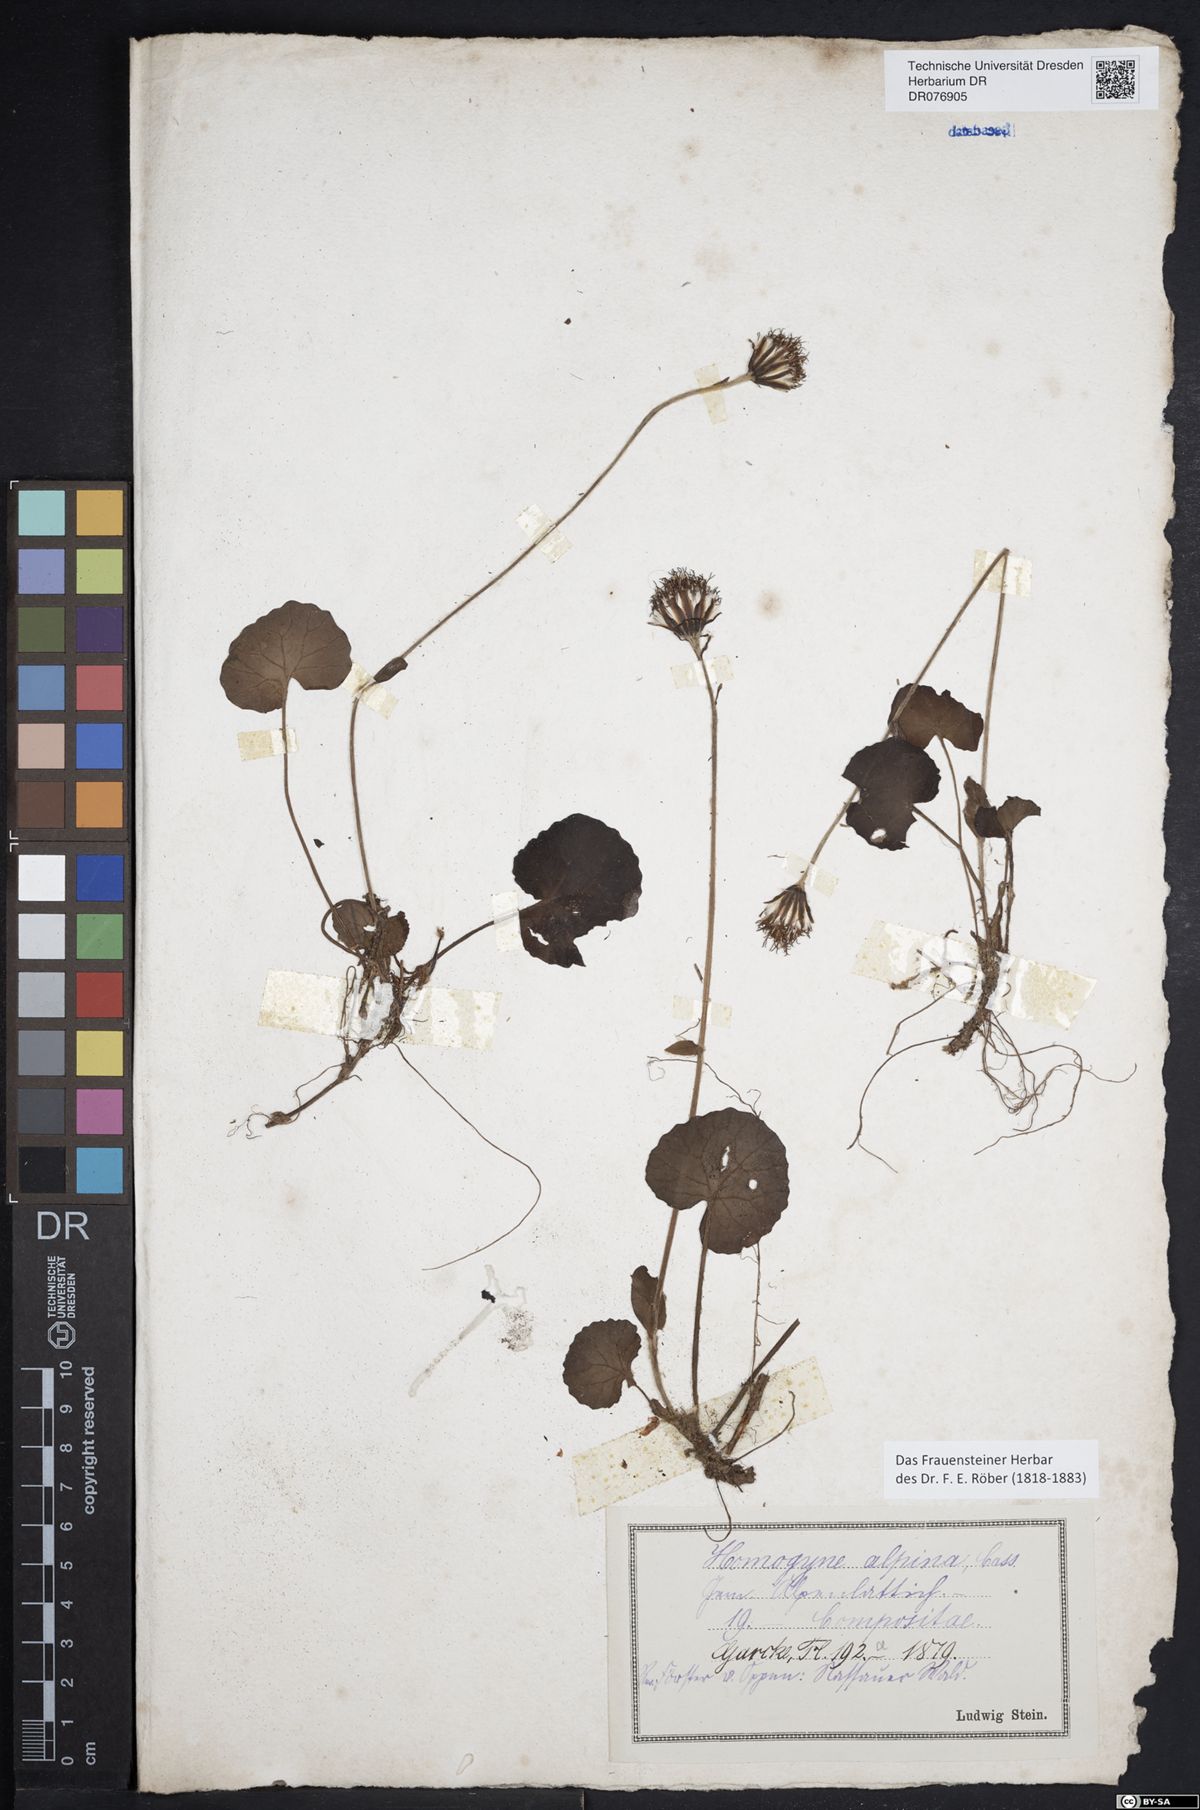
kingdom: Plantae
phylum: Tracheophyta
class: Magnoliopsida
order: Asterales
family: Asteraceae
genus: Homogyne
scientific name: Homogyne alpina
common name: Purple colt's-foot
